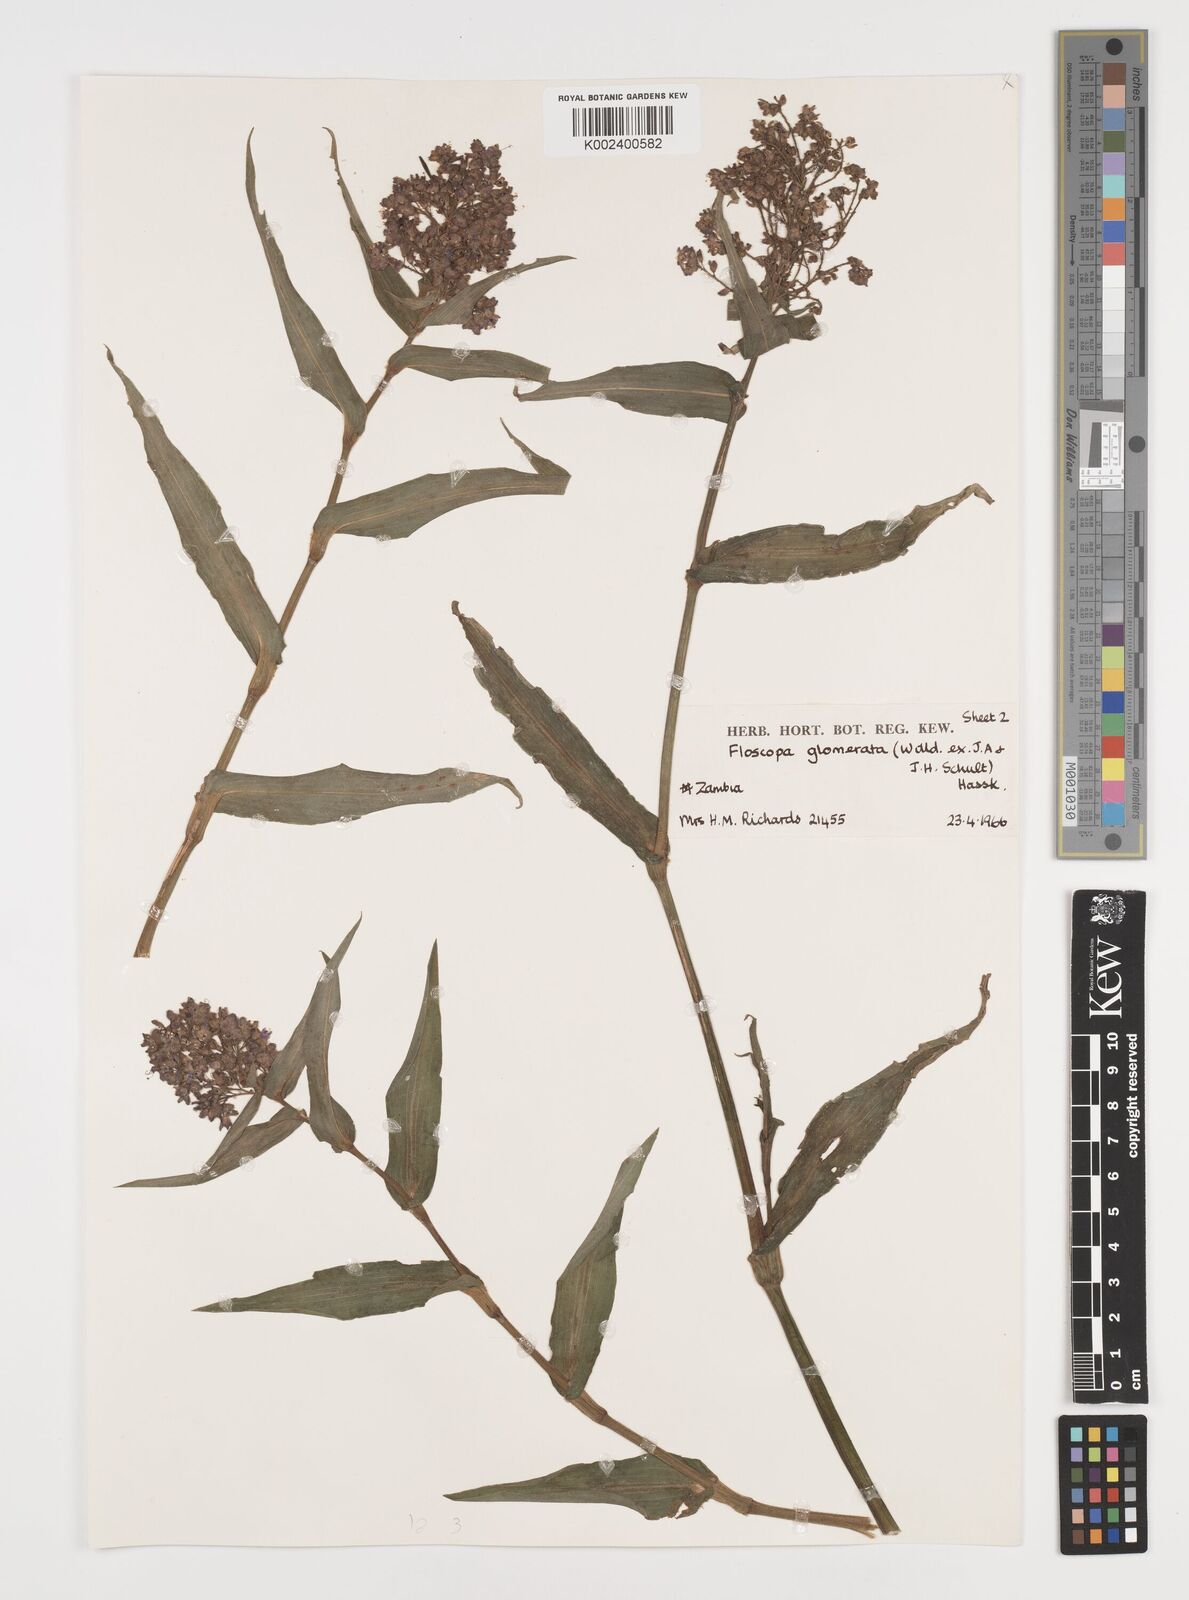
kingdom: Plantae
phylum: Tracheophyta
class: Liliopsida
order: Commelinales
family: Commelinaceae
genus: Floscopa
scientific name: Floscopa glomerata
